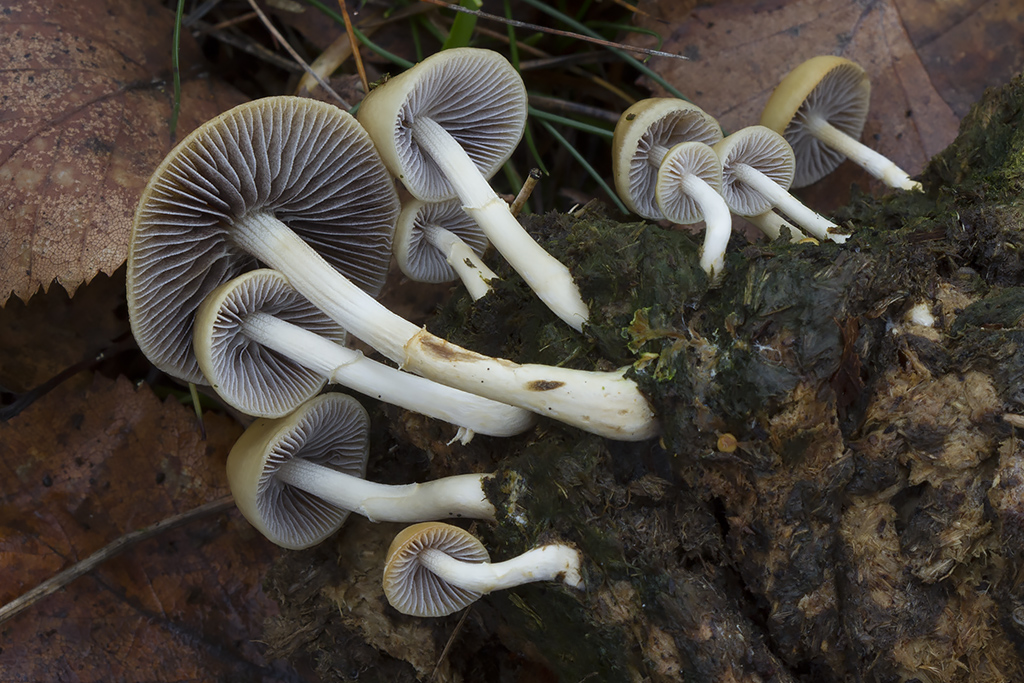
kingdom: Fungi
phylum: Basidiomycota
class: Agaricomycetes
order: Agaricales
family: Strophariaceae
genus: Protostropharia
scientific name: Protostropharia semiglobata
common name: halvkugleformet bredblad
